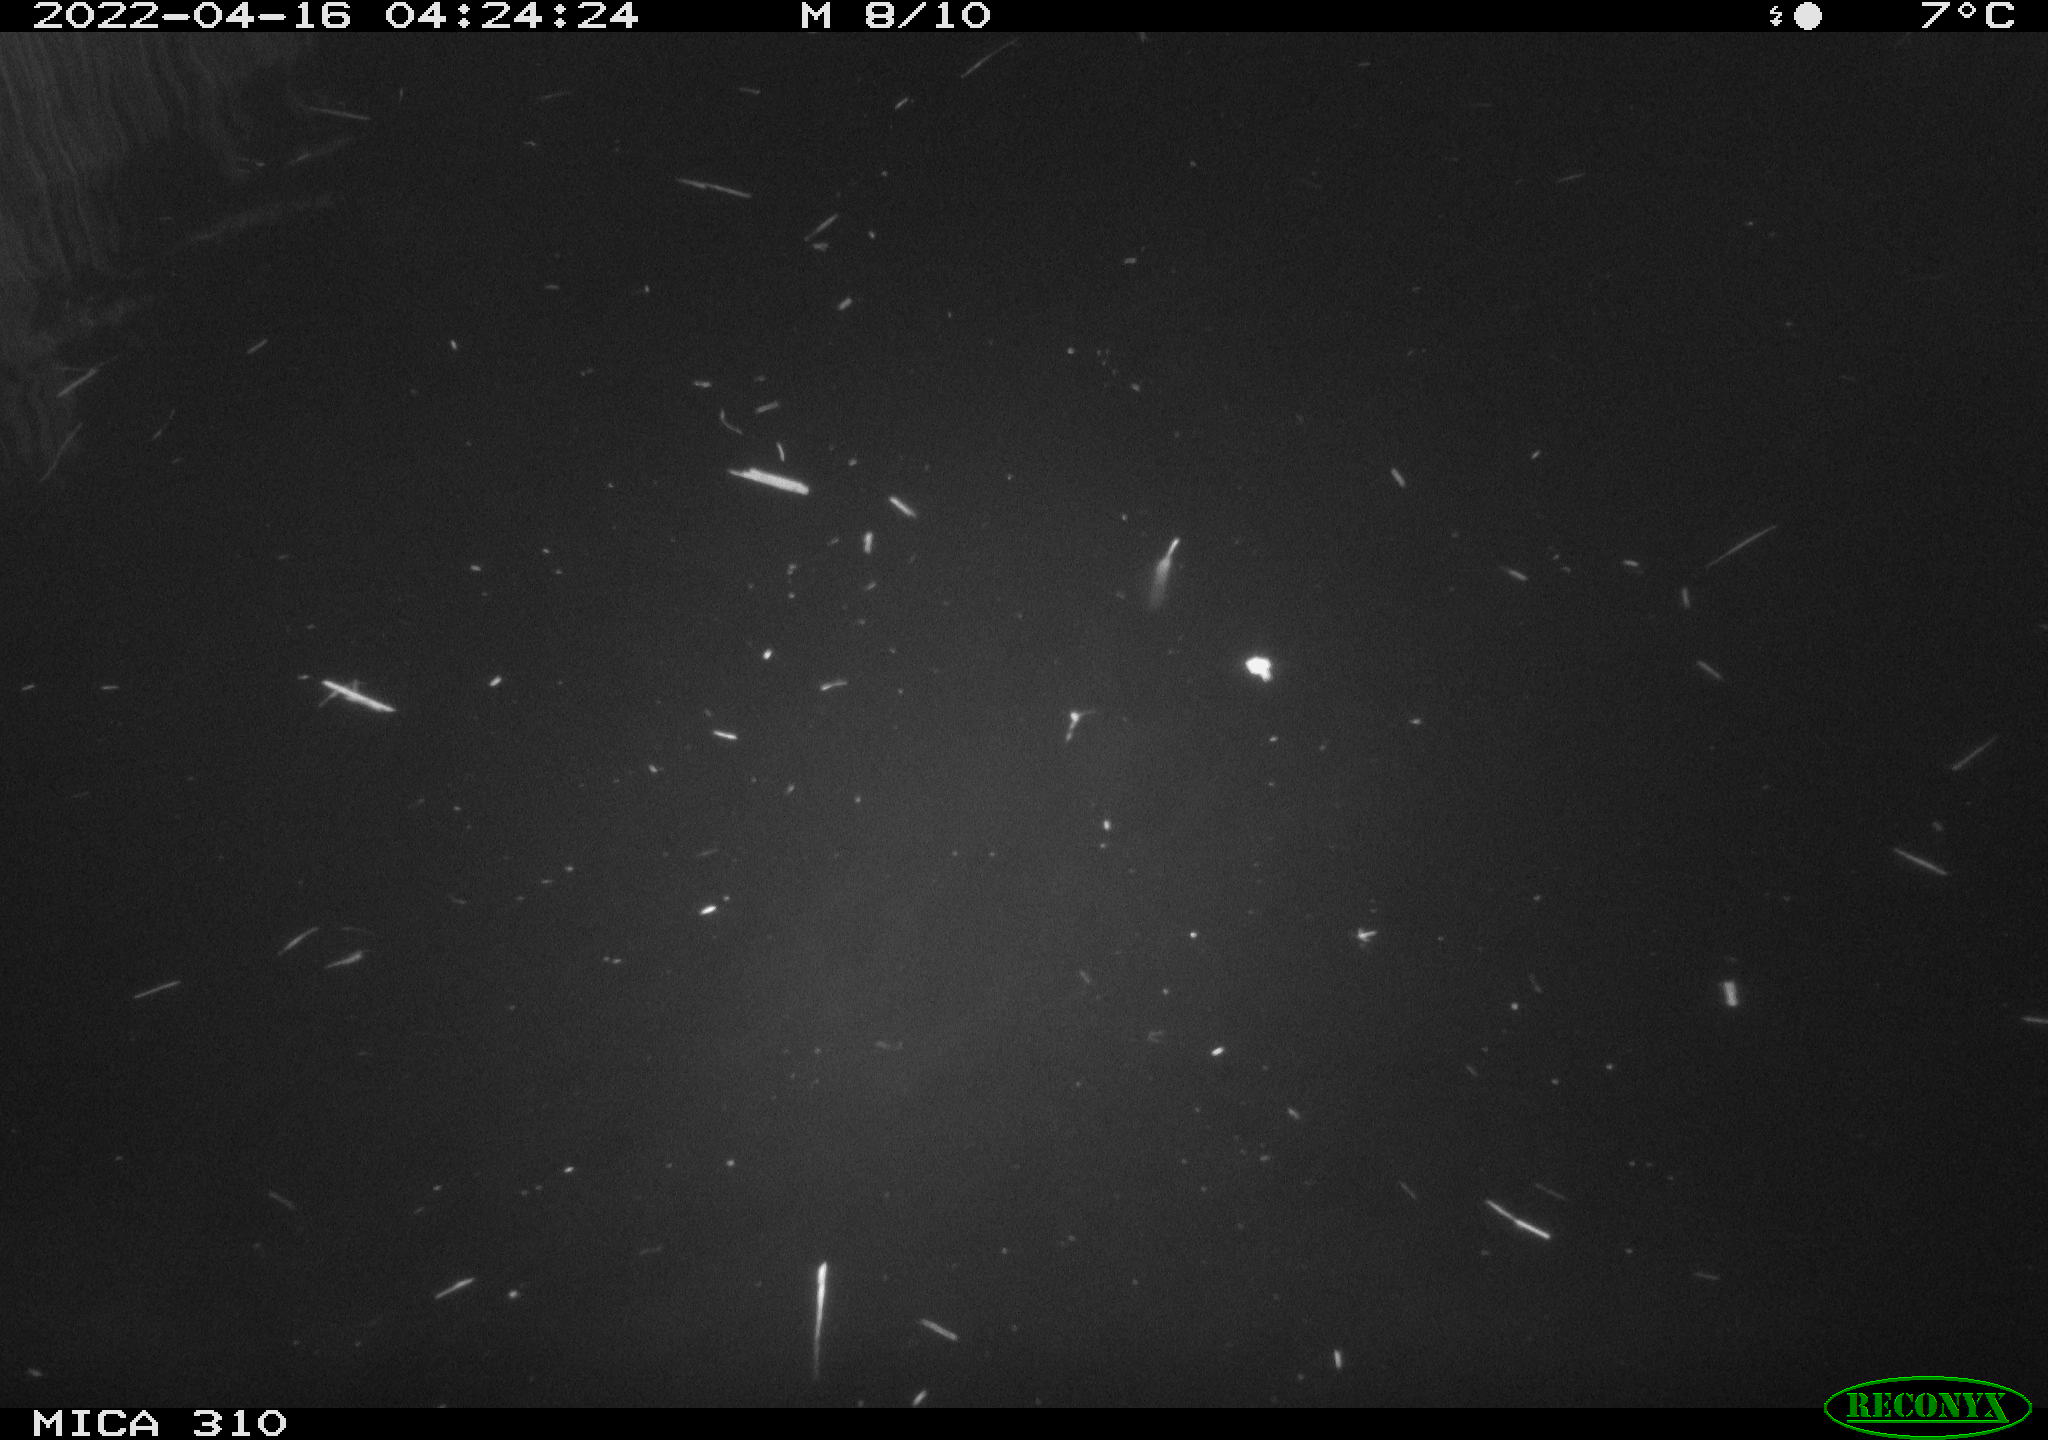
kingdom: Animalia
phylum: Chordata
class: Aves
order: Anseriformes
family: Anatidae
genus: Anas
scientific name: Anas platyrhynchos
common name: Mallard
